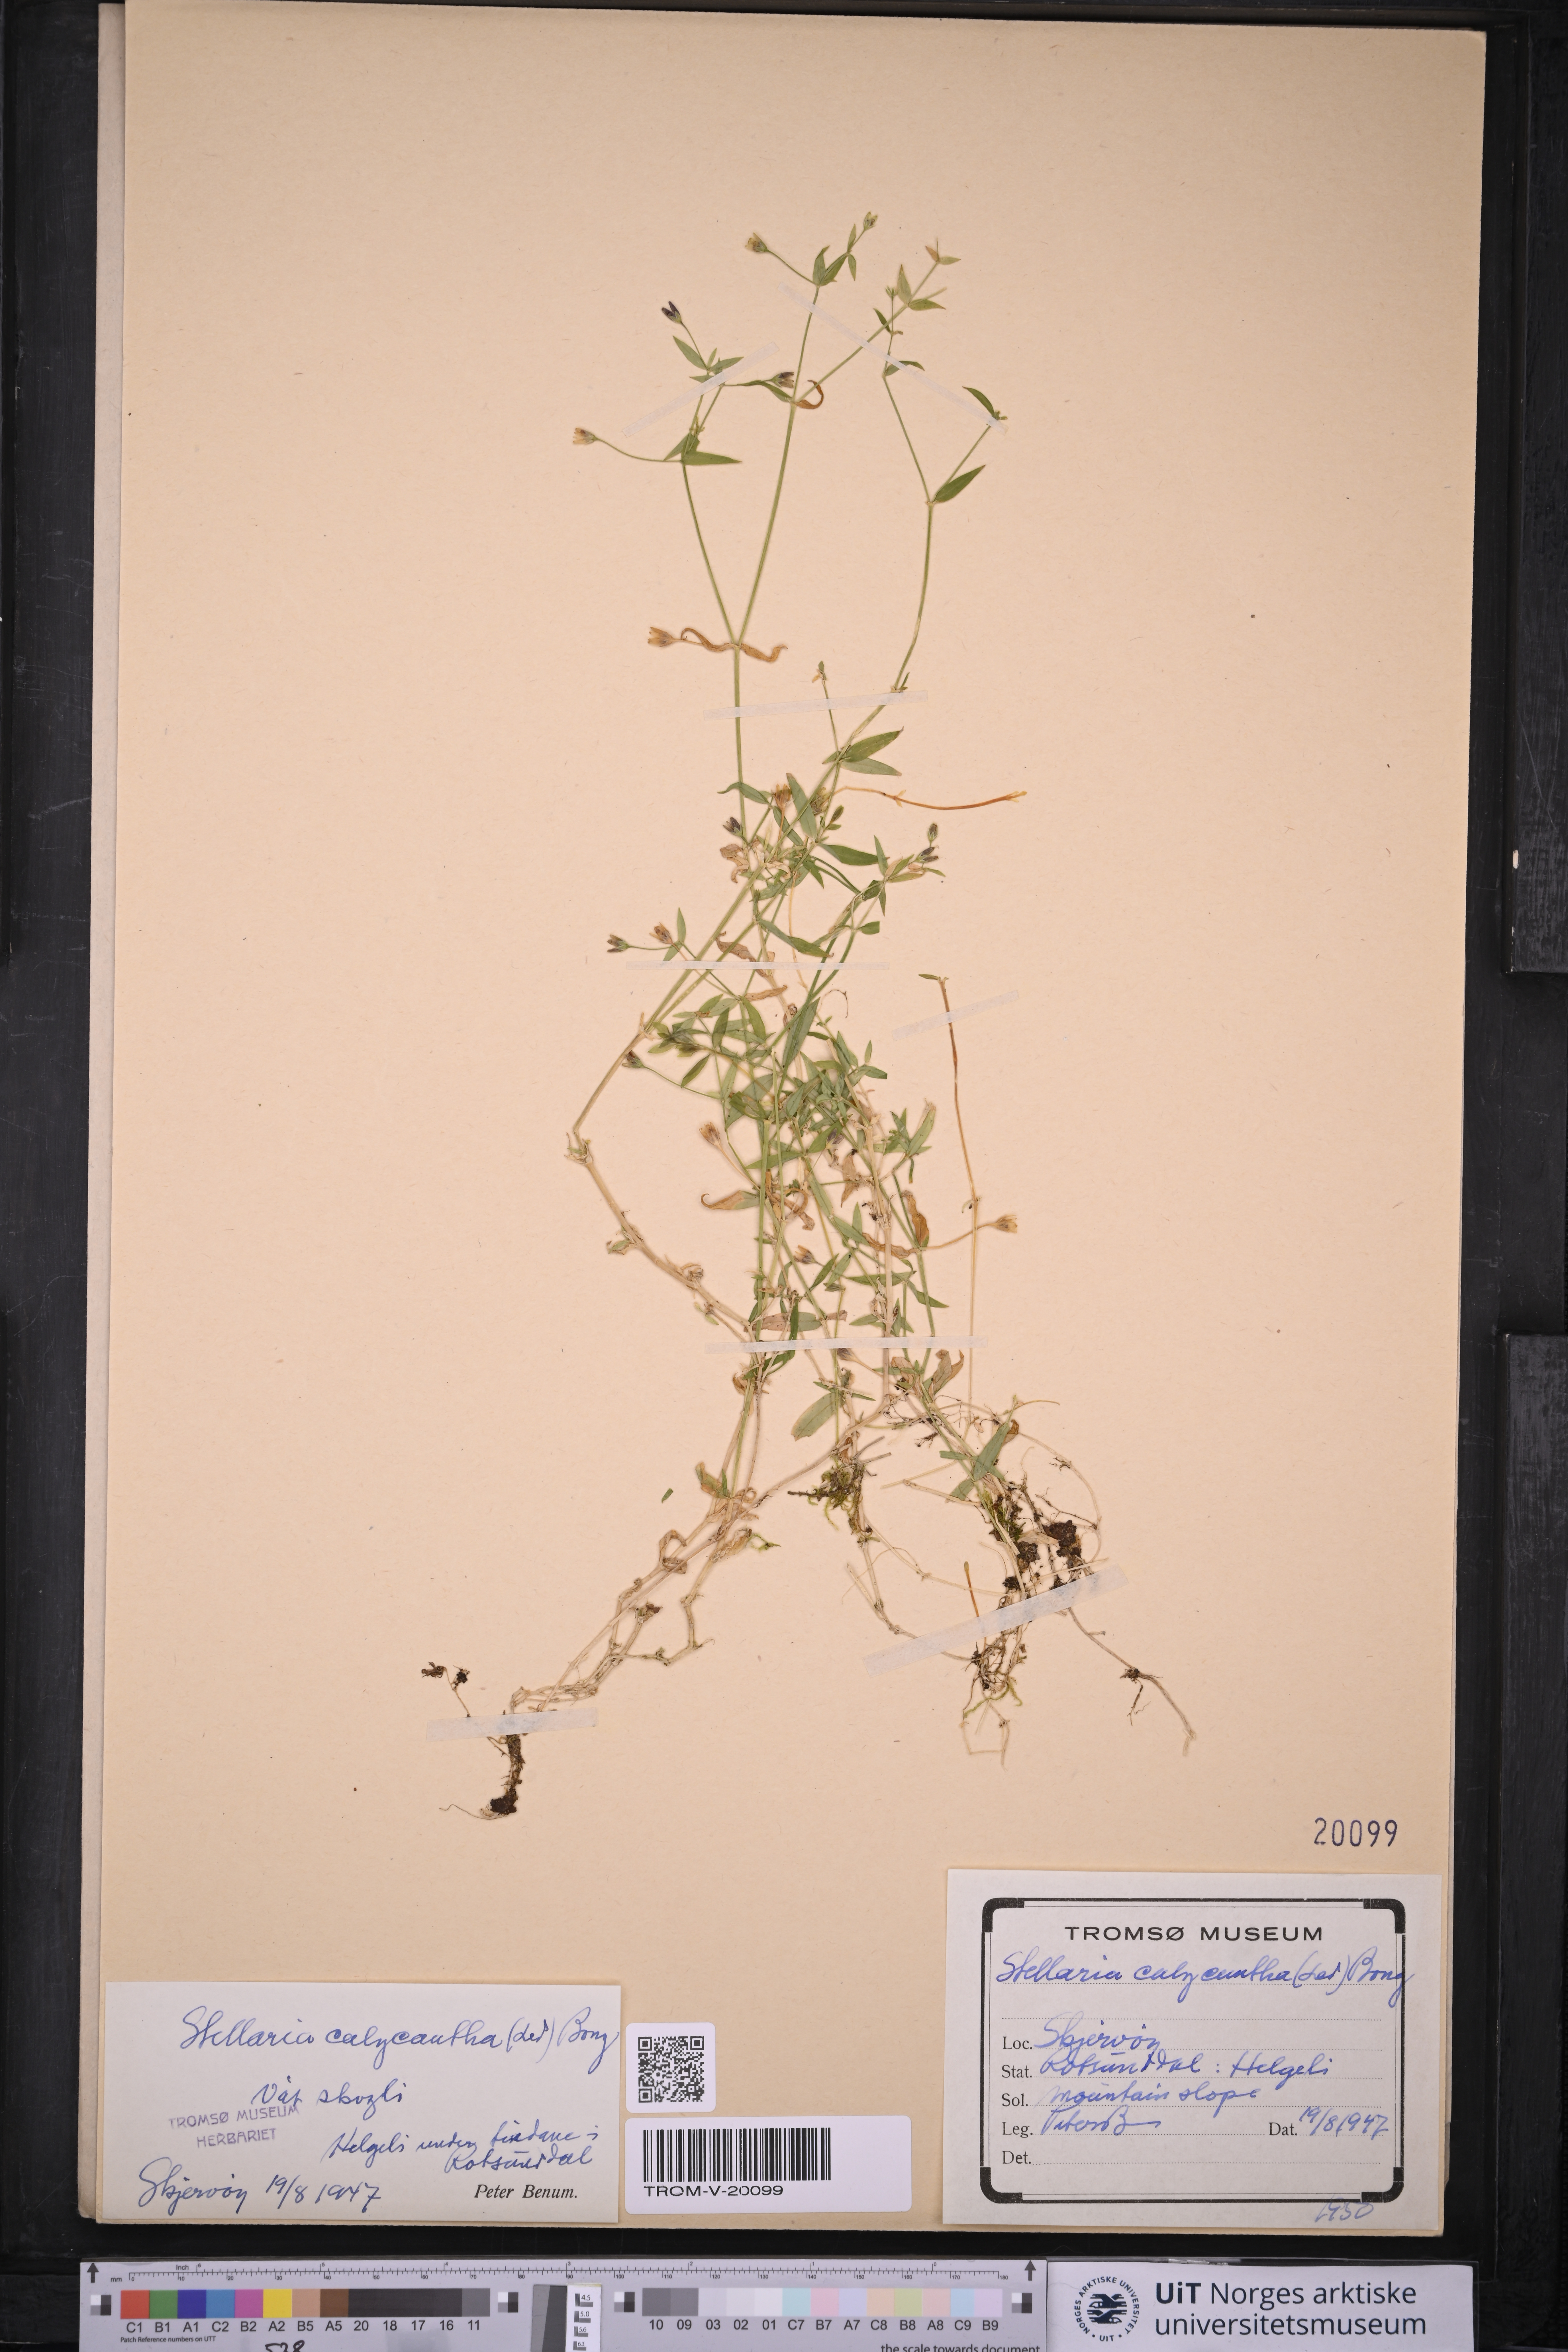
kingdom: Plantae
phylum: Tracheophyta
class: Magnoliopsida
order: Caryophyllales
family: Caryophyllaceae
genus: Stellaria
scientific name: Stellaria borealis
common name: Boreal starwort
